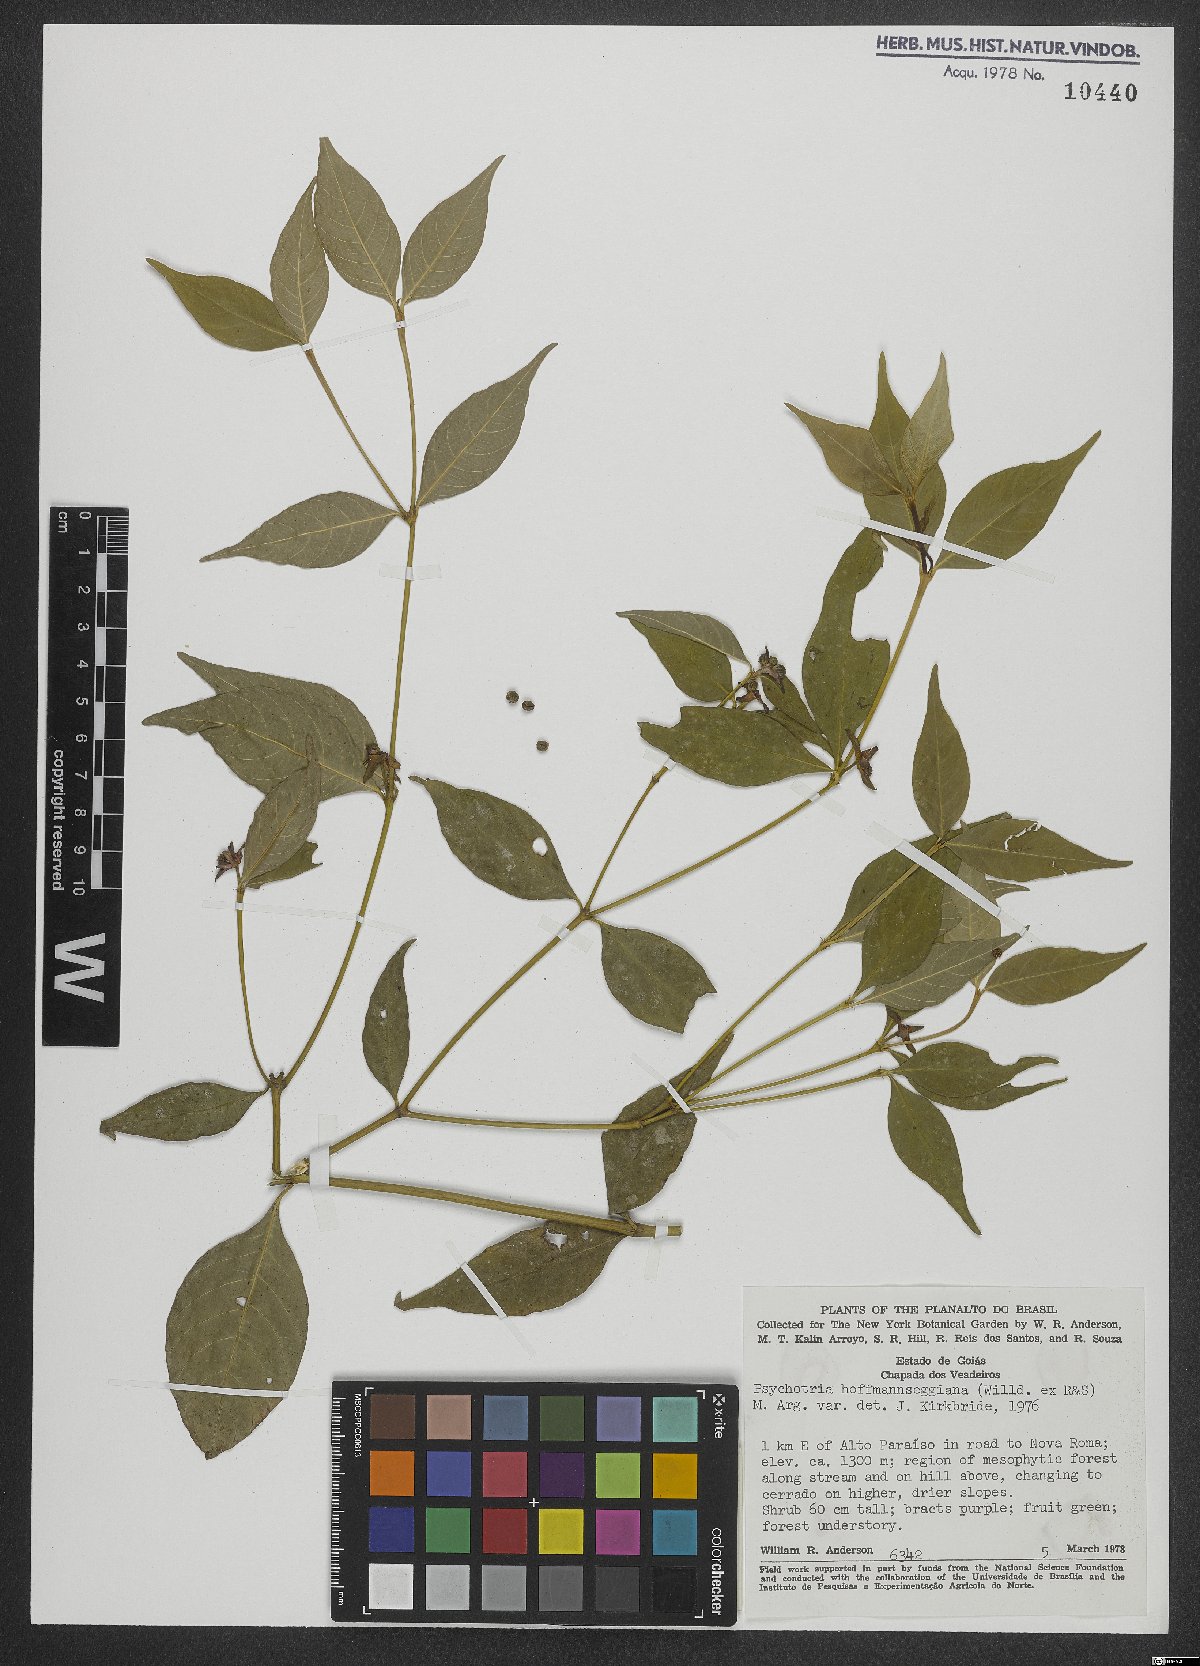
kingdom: Plantae
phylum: Tracheophyta
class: Magnoliopsida
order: Gentianales
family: Rubiaceae
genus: Palicourea
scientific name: Palicourea hoffmannseggiana
